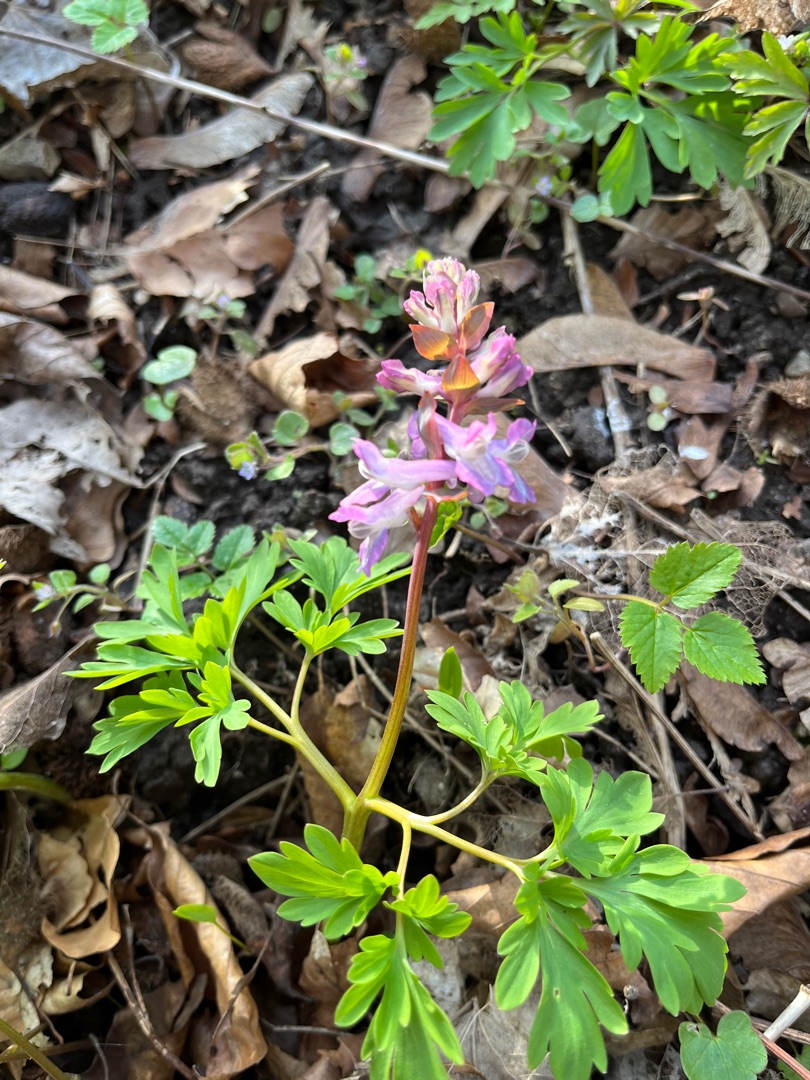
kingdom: Plantae
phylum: Tracheophyta
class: Magnoliopsida
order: Ranunculales
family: Papaveraceae
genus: Corydalis
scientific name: Corydalis cava
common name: Hulrodet lærkespore
